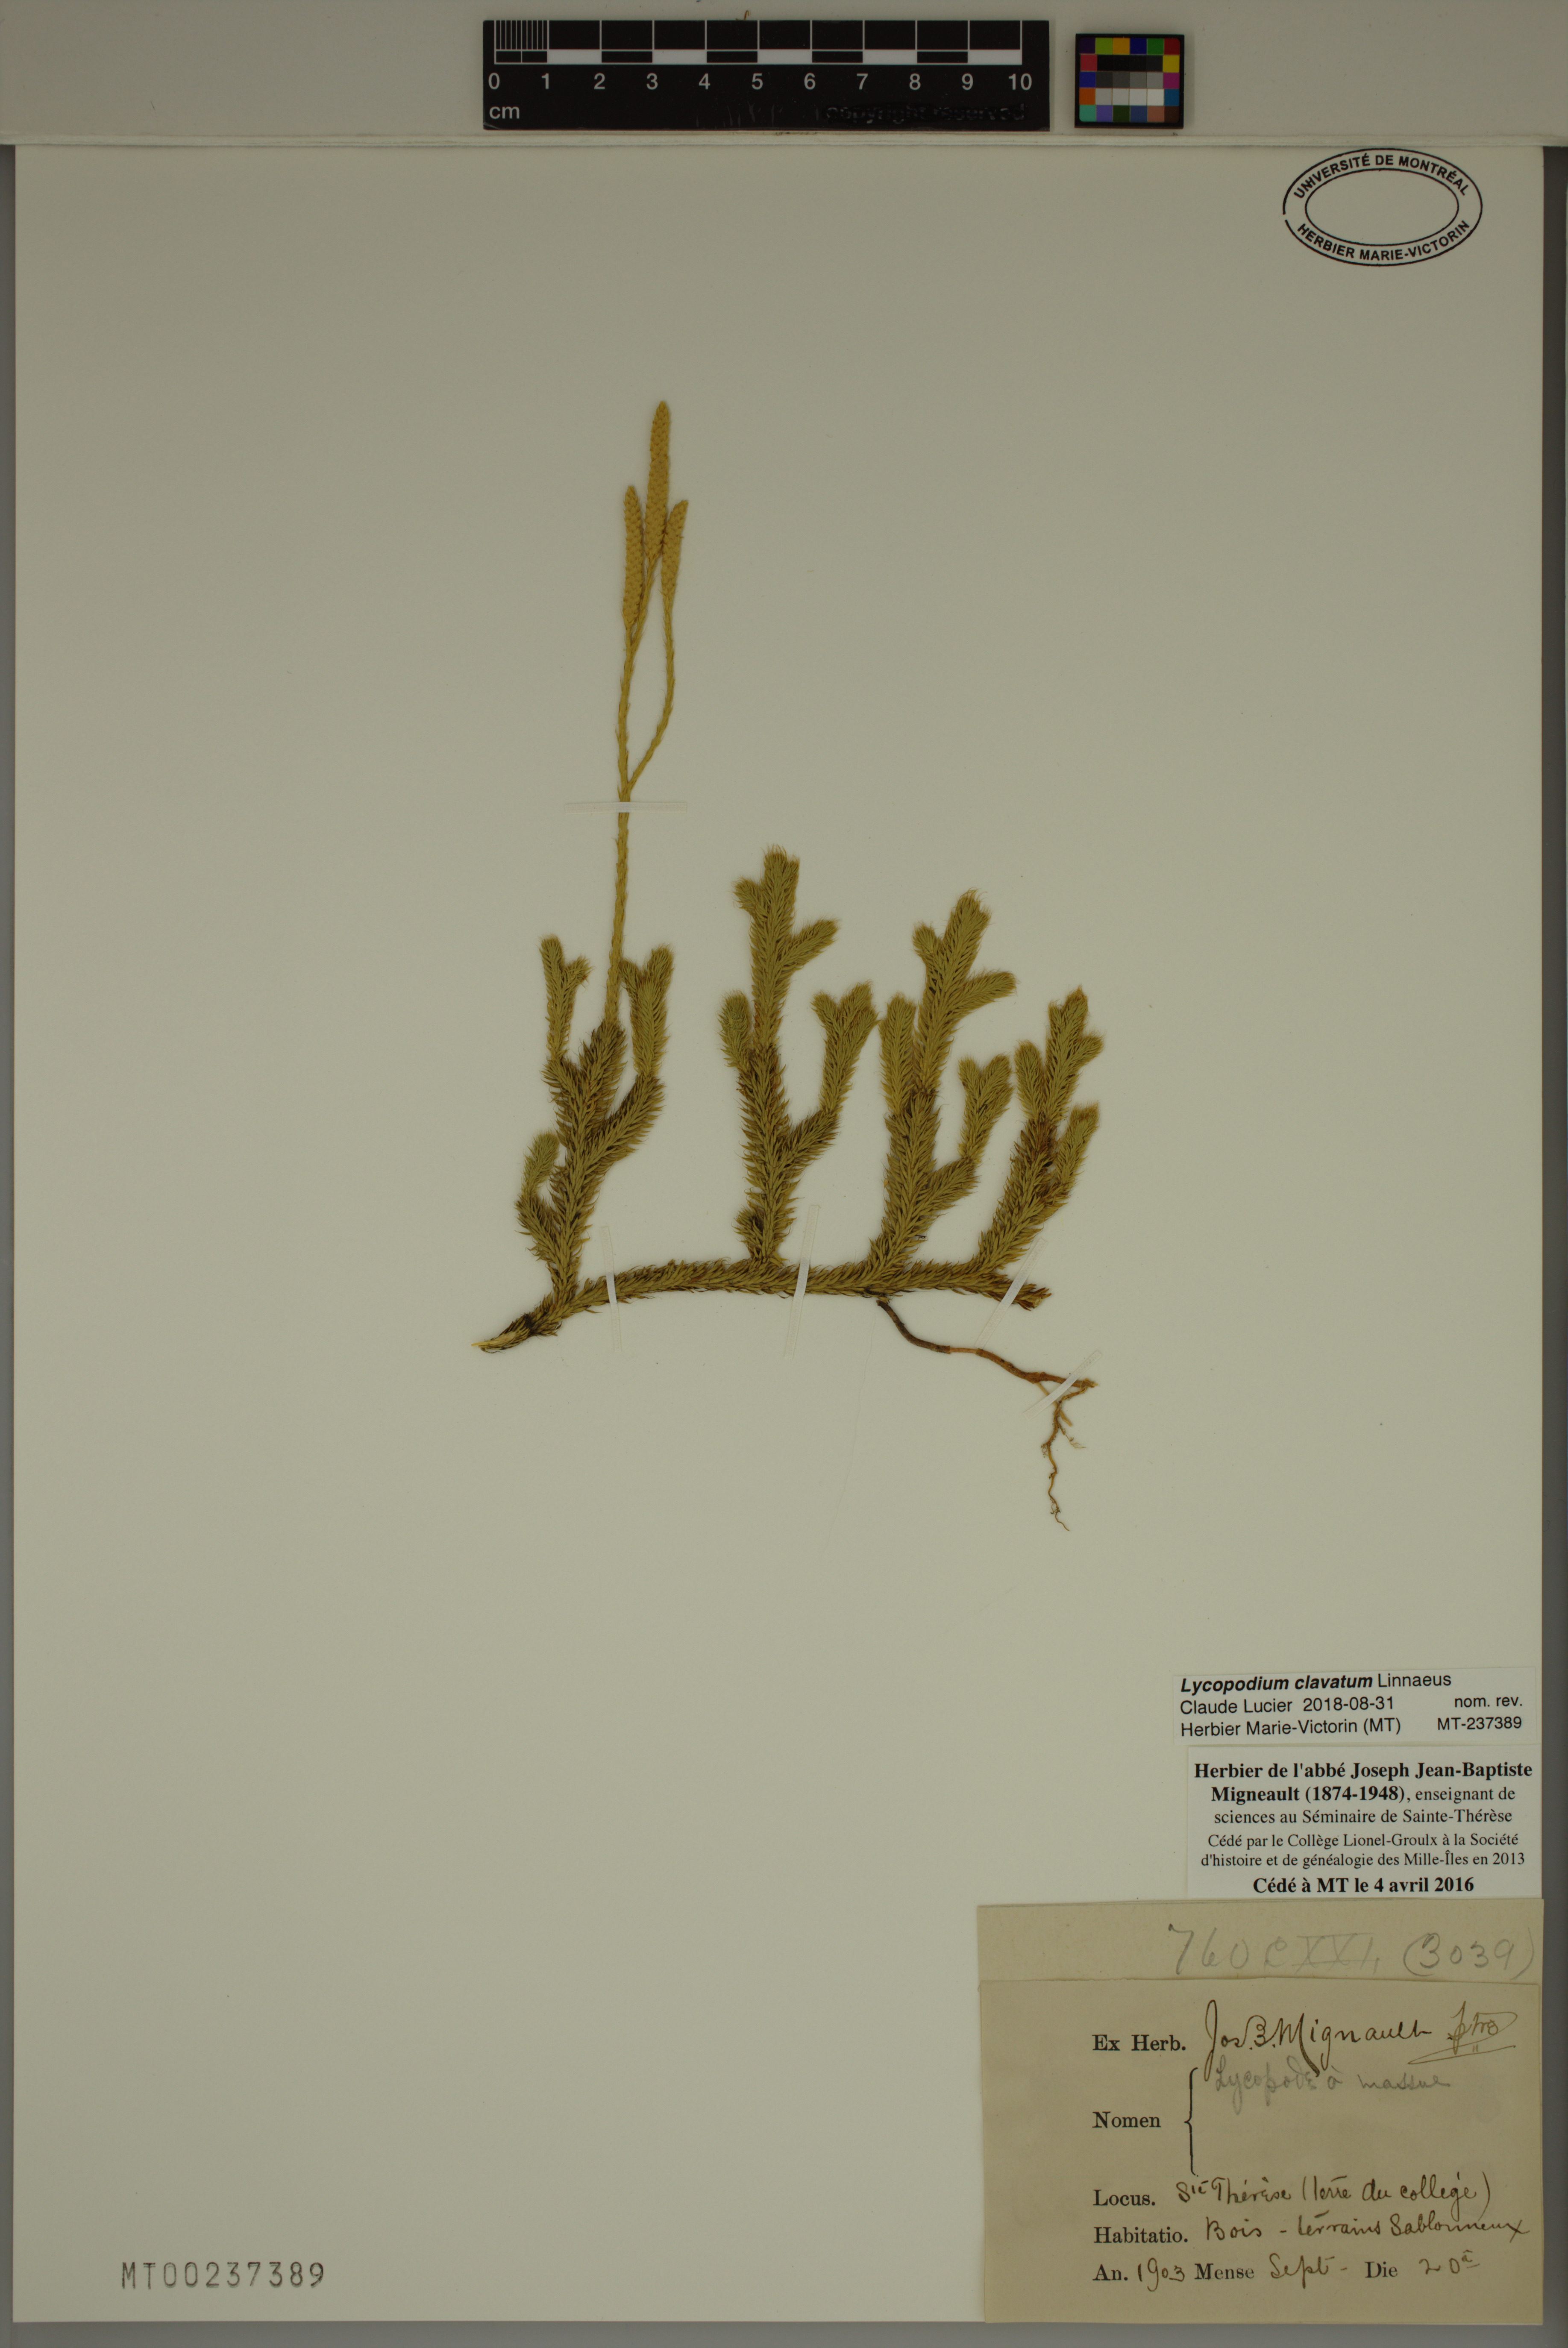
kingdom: Plantae
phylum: Tracheophyta
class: Lycopodiopsida
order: Lycopodiales
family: Lycopodiaceae
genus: Lycopodium
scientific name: Lycopodium clavatum
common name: Stag's-horn clubmoss
